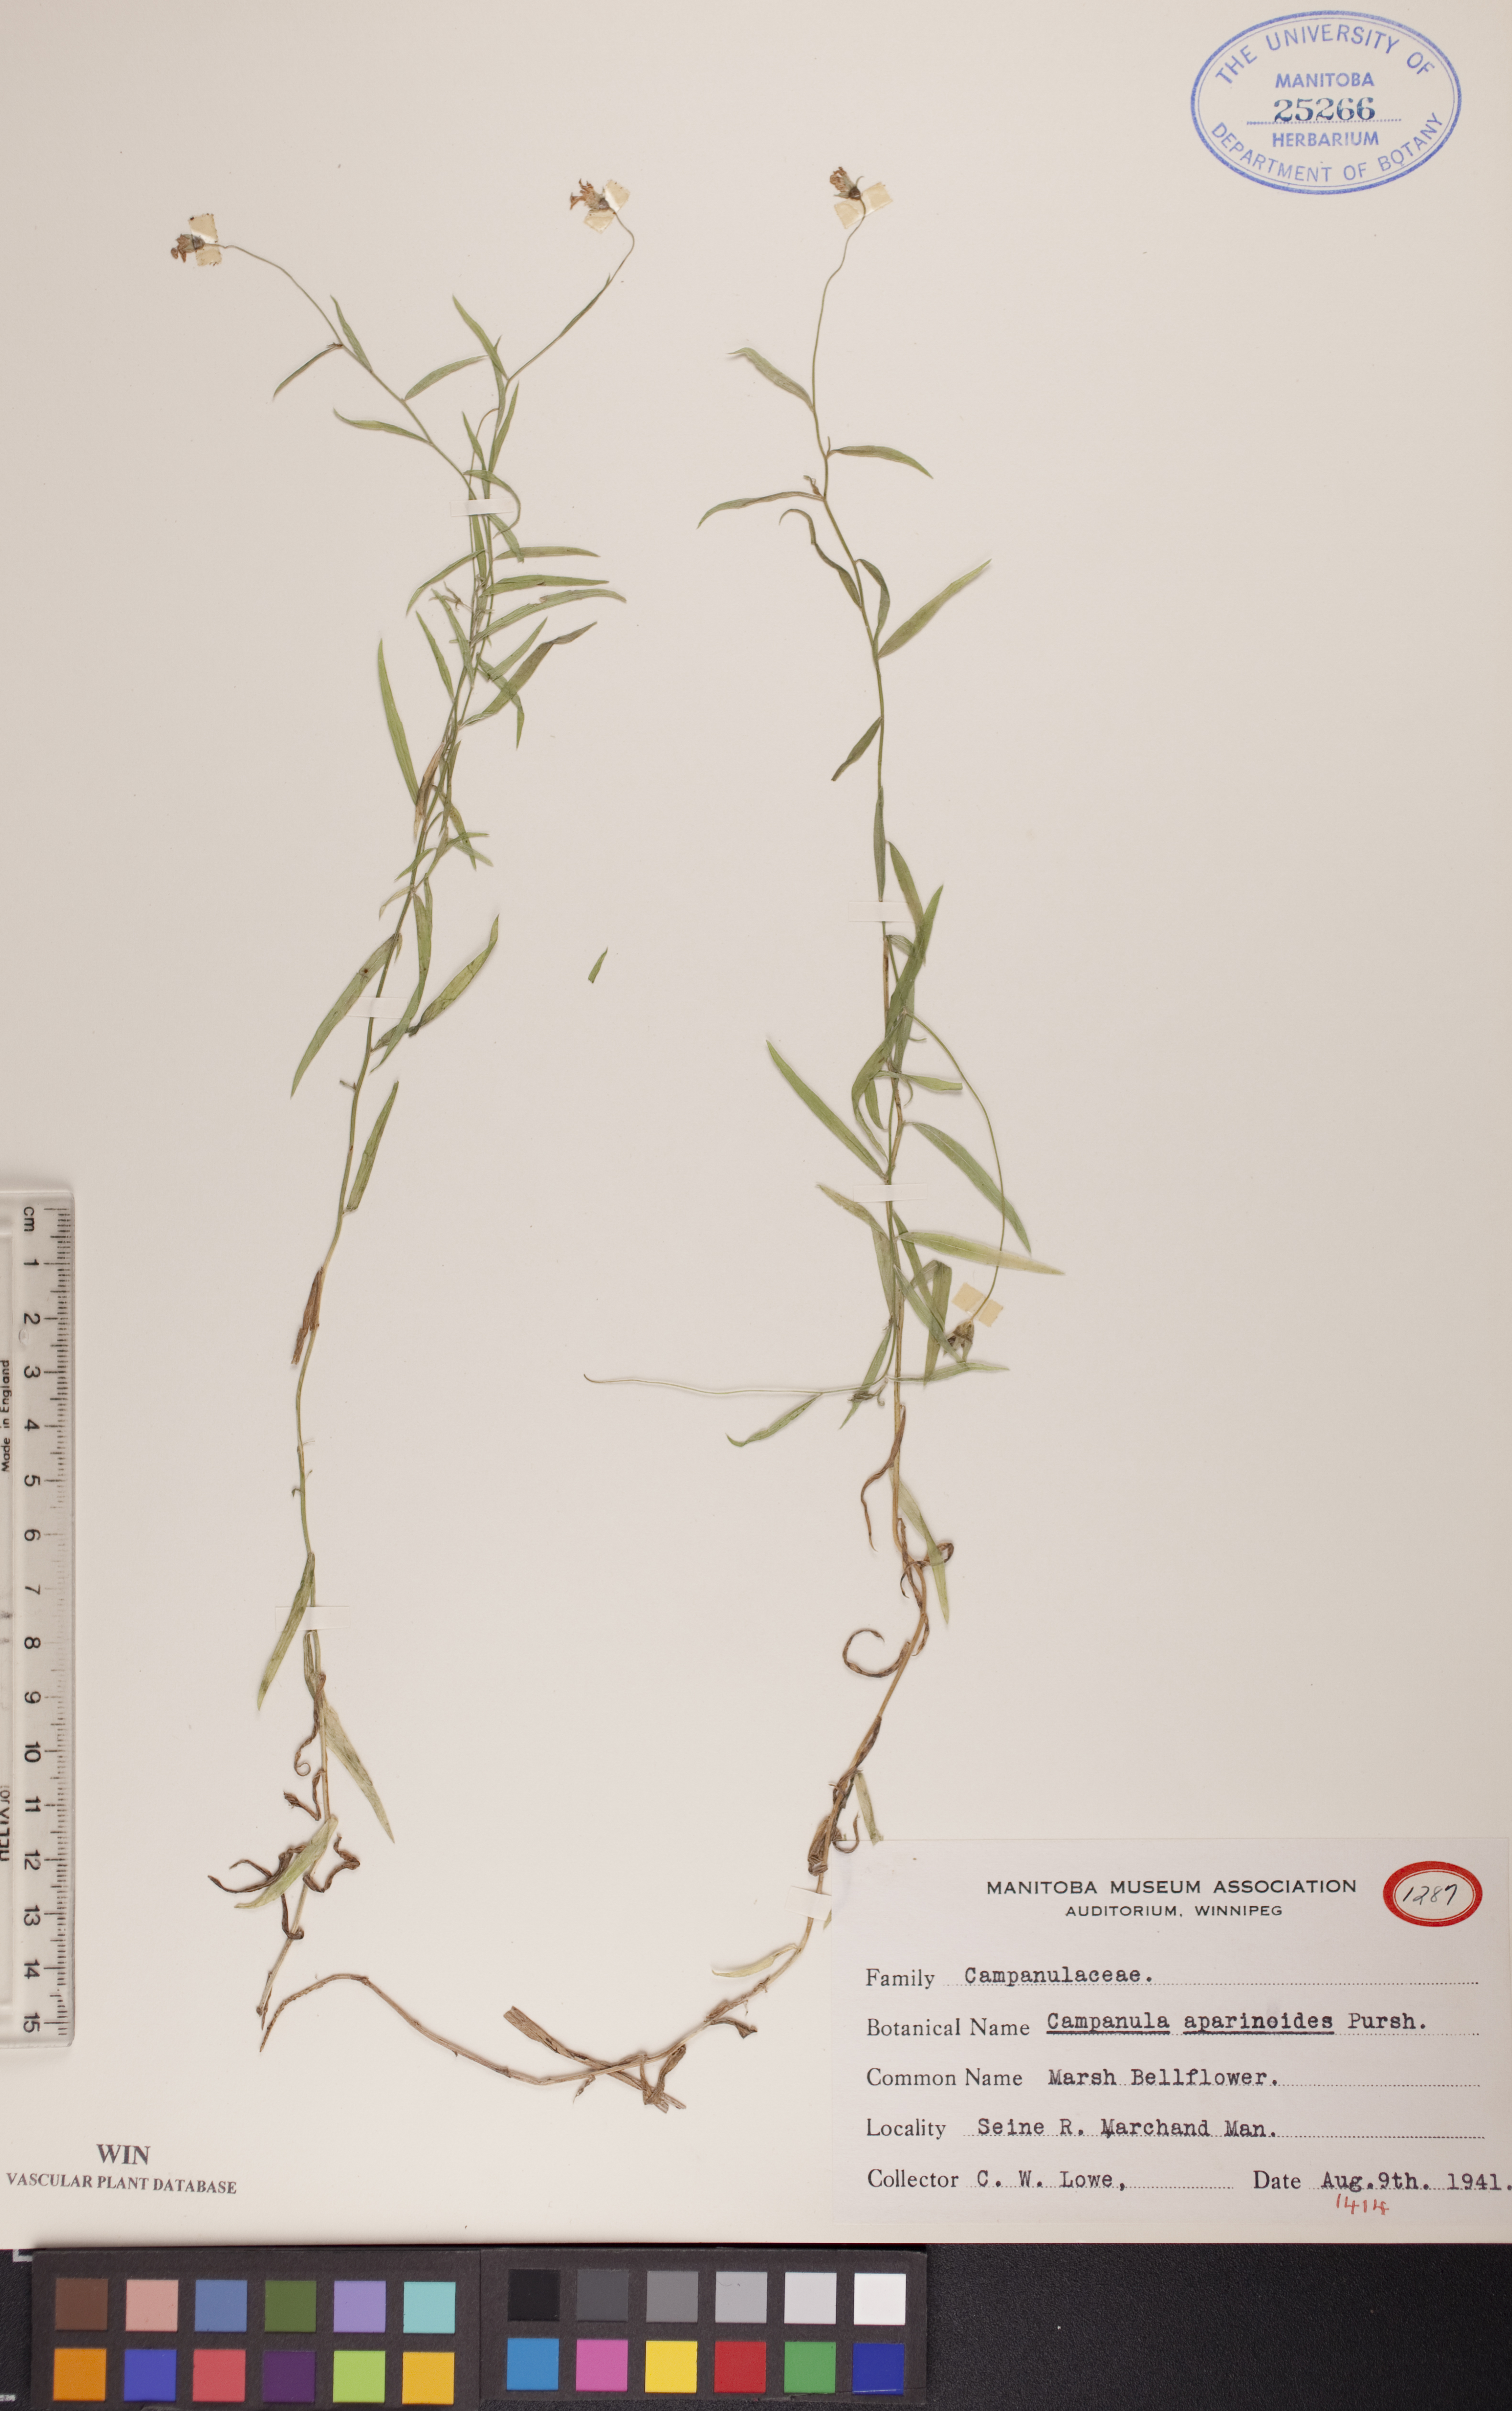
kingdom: Plantae
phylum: Tracheophyta
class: Magnoliopsida
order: Asterales
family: Campanulaceae
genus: Palustricodon
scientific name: Palustricodon aparinoides
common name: Bedstraw bellflower
